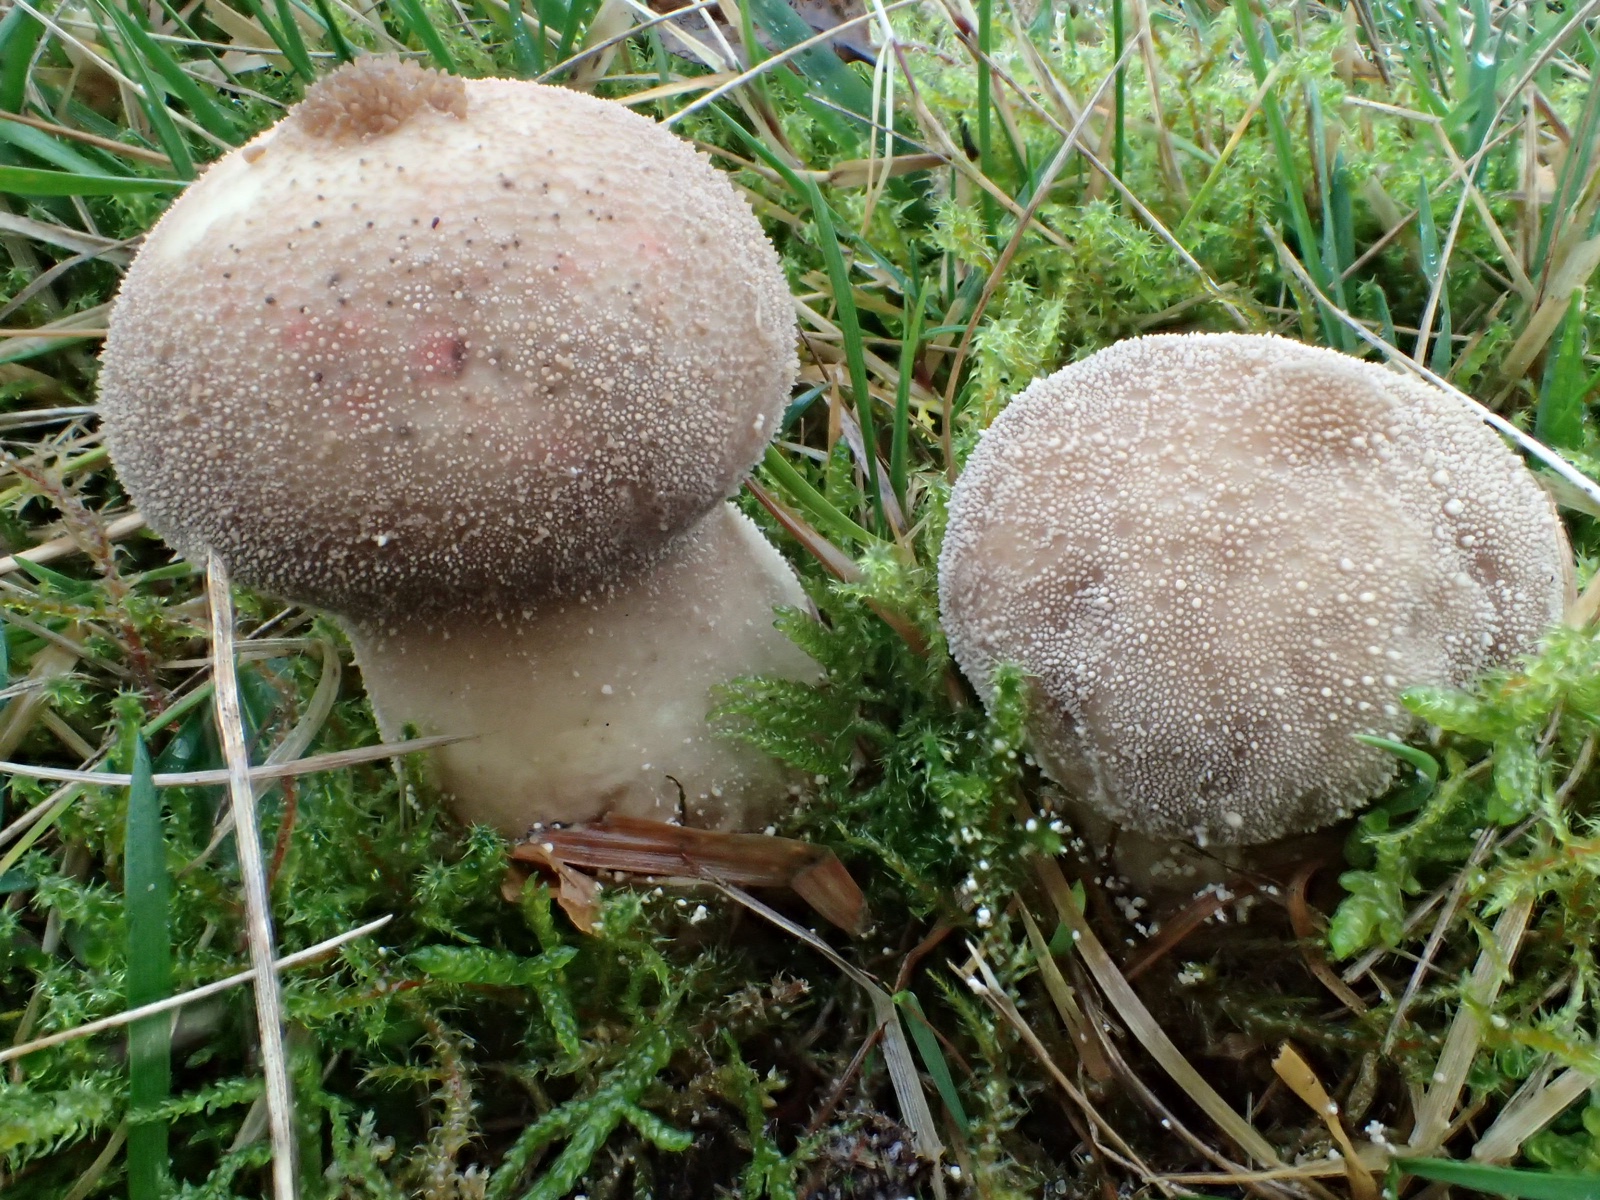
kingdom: Fungi
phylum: Basidiomycota
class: Agaricomycetes
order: Agaricales
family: Lycoperdaceae
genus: Lycoperdon
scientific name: Lycoperdon perlatum
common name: krystal-støvbold
